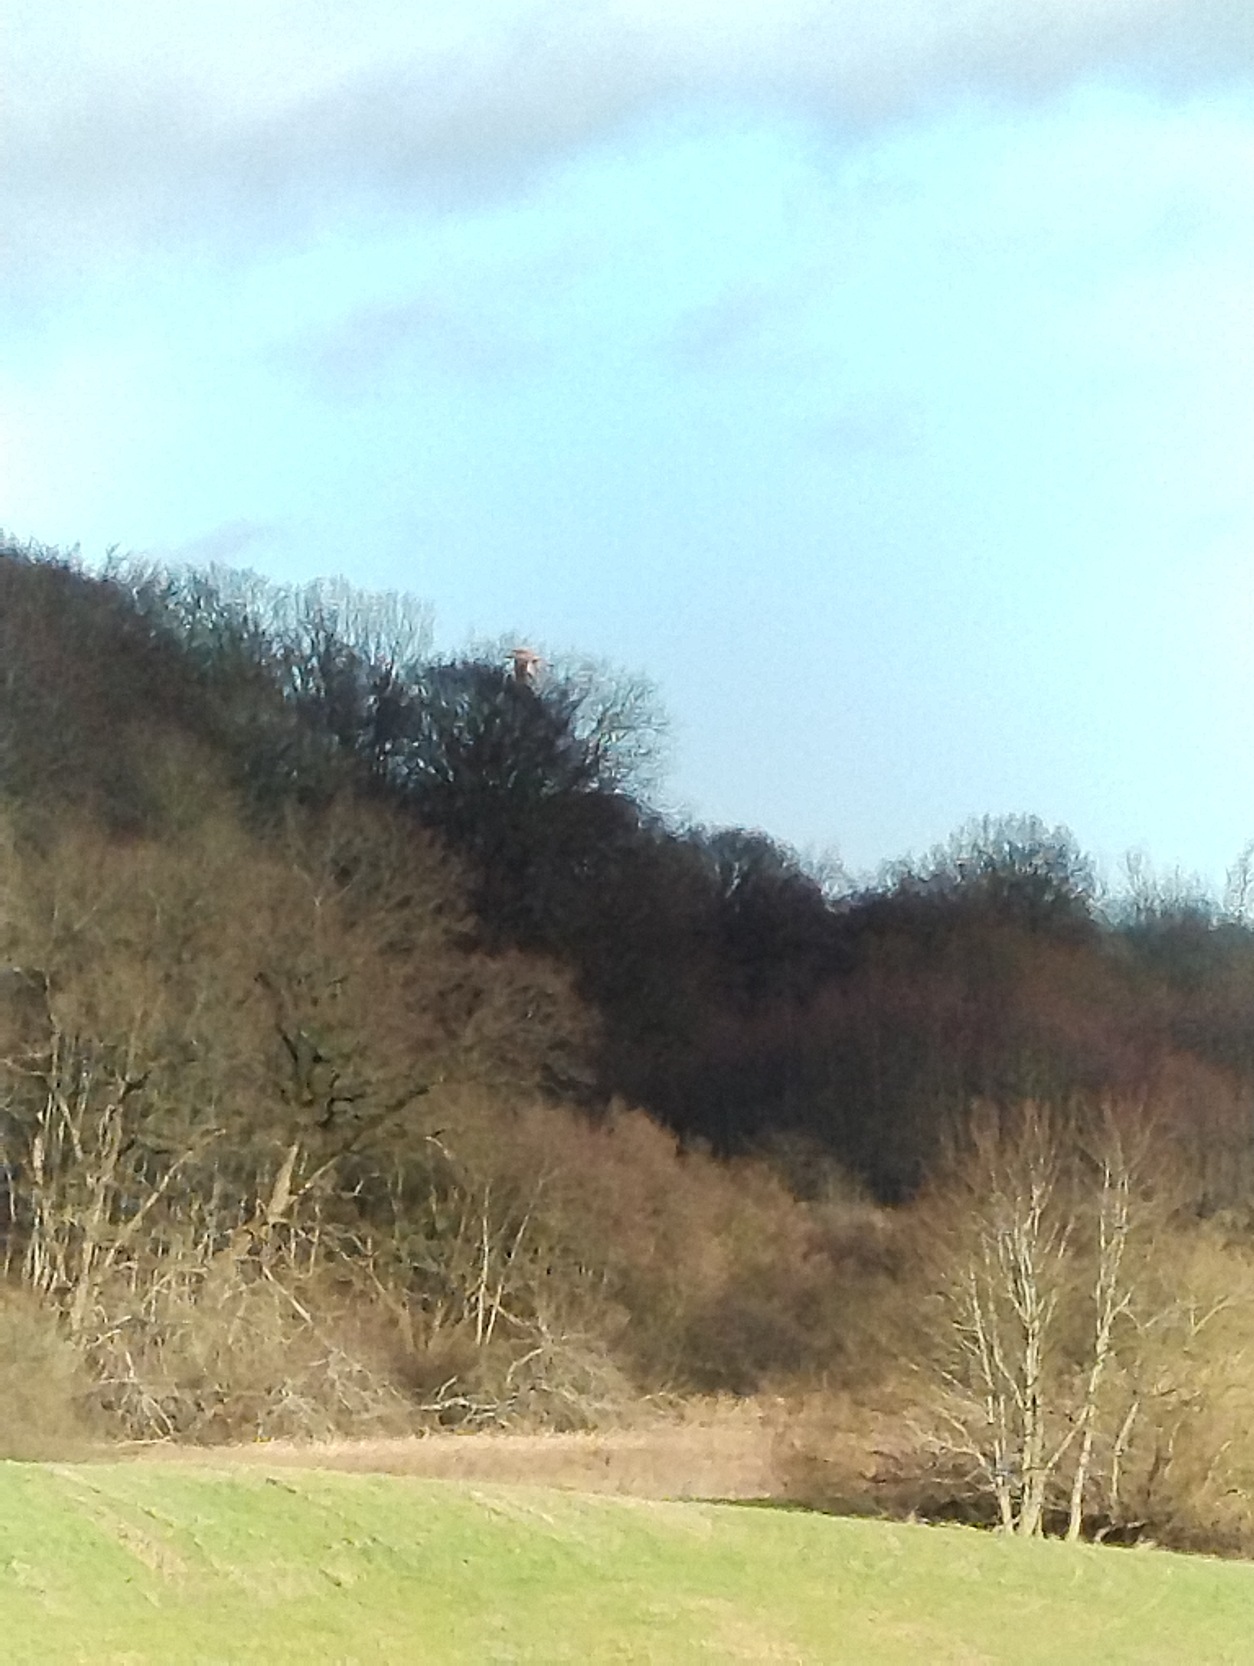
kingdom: Animalia
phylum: Chordata
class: Aves
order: Falconiformes
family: Falconidae
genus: Falco
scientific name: Falco tinnunculus
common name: Tårnfalk
